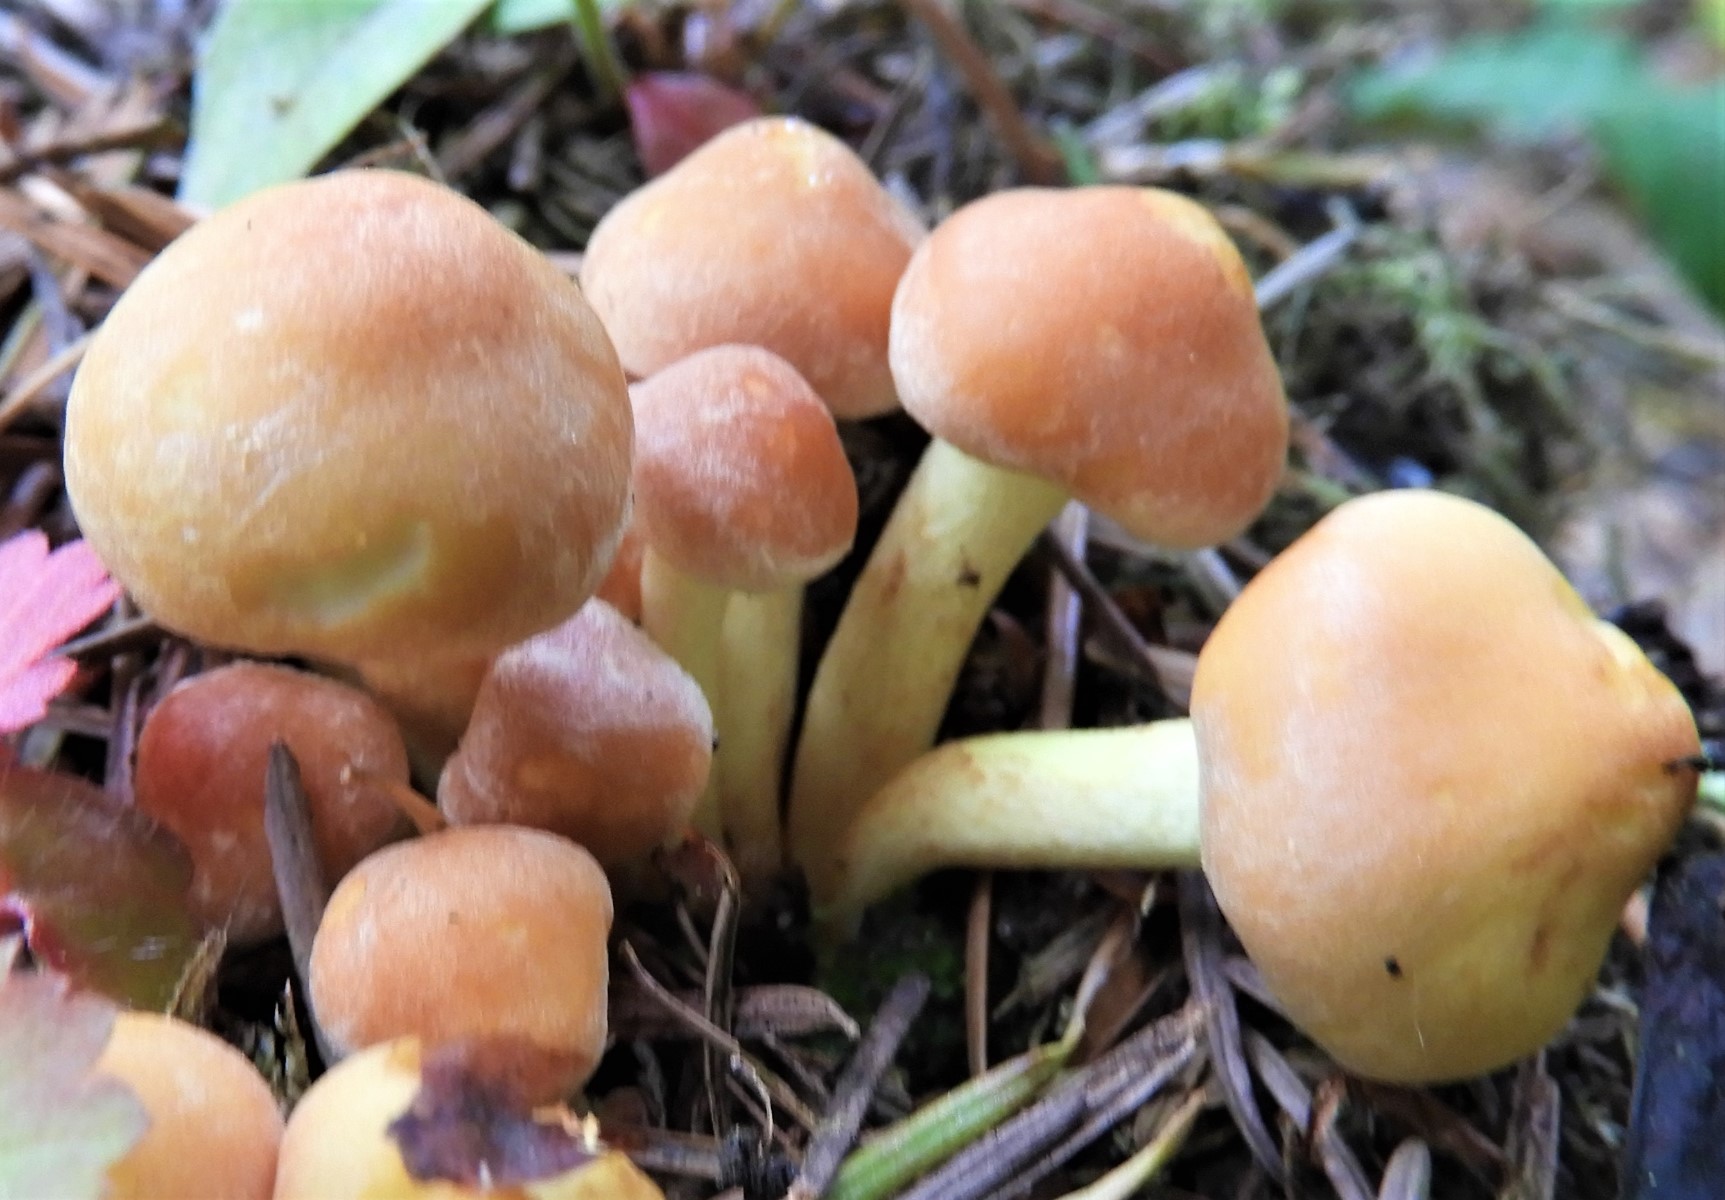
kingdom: Fungi
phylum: Basidiomycota
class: Agaricomycetes
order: Agaricales
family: Strophariaceae
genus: Hypholoma
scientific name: Hypholoma fasciculare
